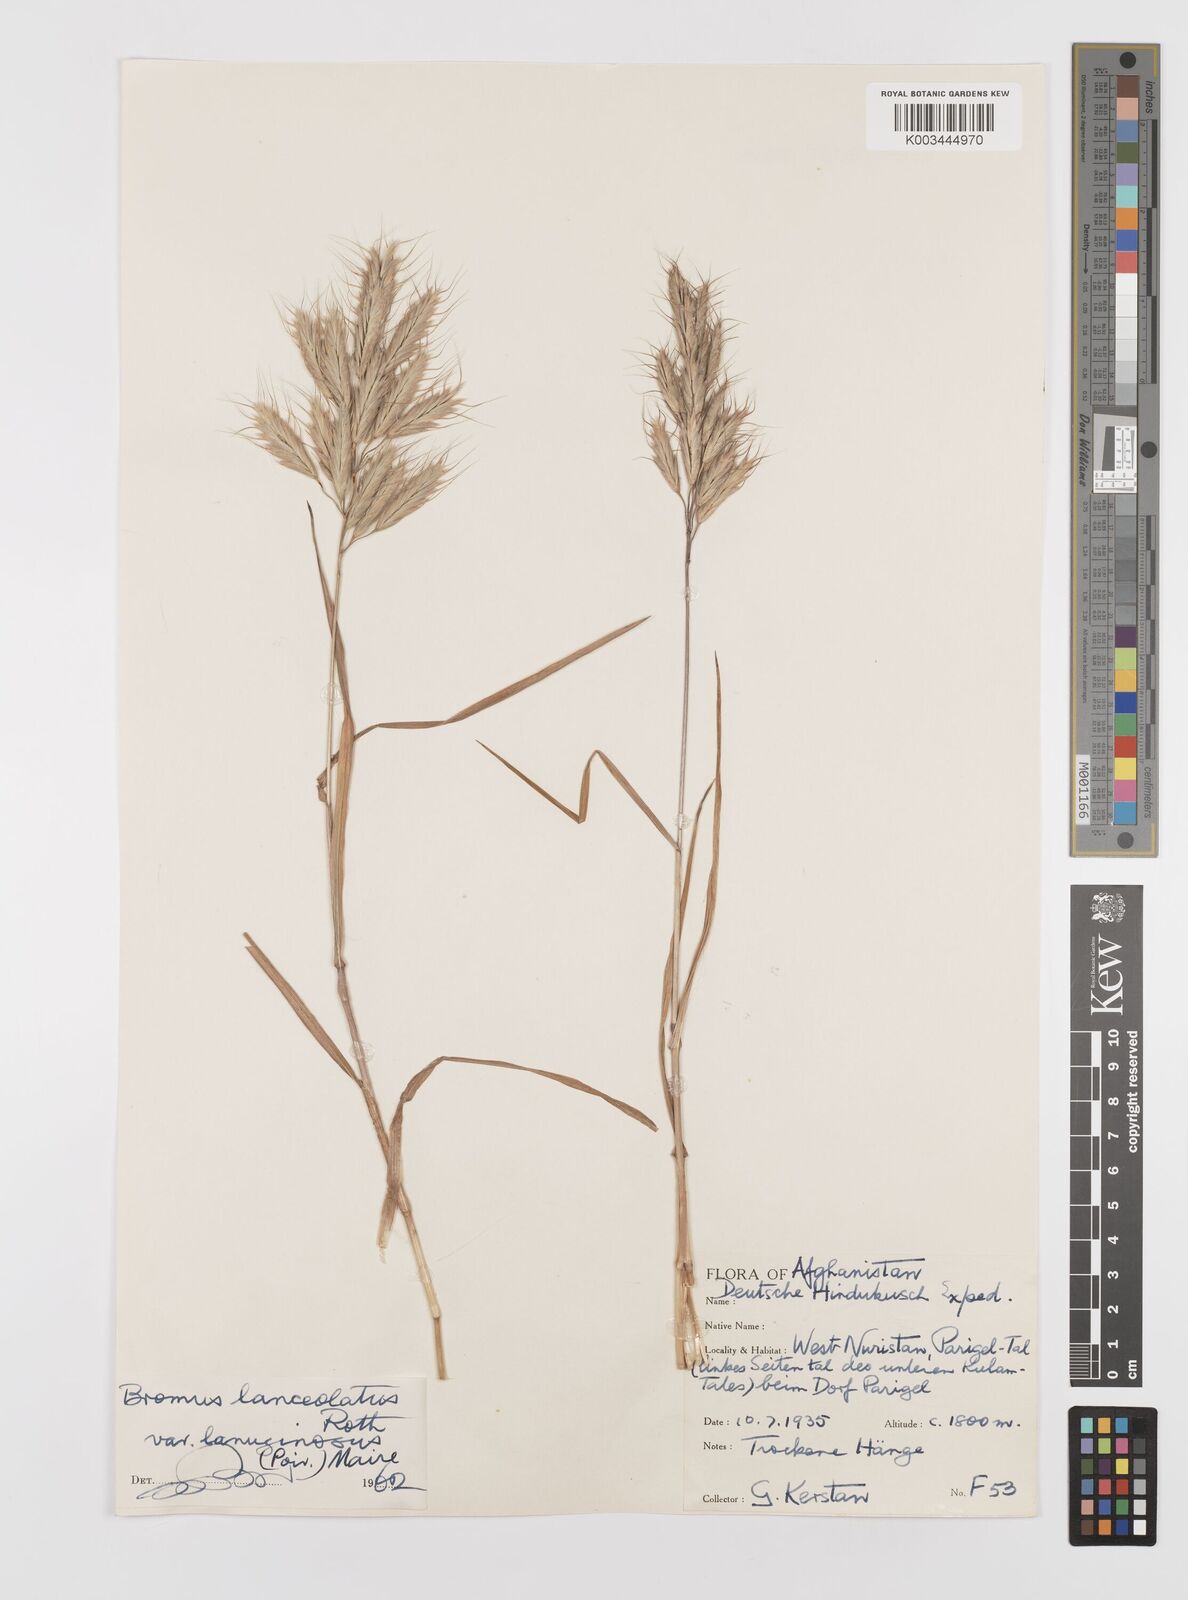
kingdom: Plantae
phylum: Tracheophyta
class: Liliopsida
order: Poales
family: Poaceae
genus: Bromus
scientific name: Bromus lanceolatus
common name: Mediterranean brome
